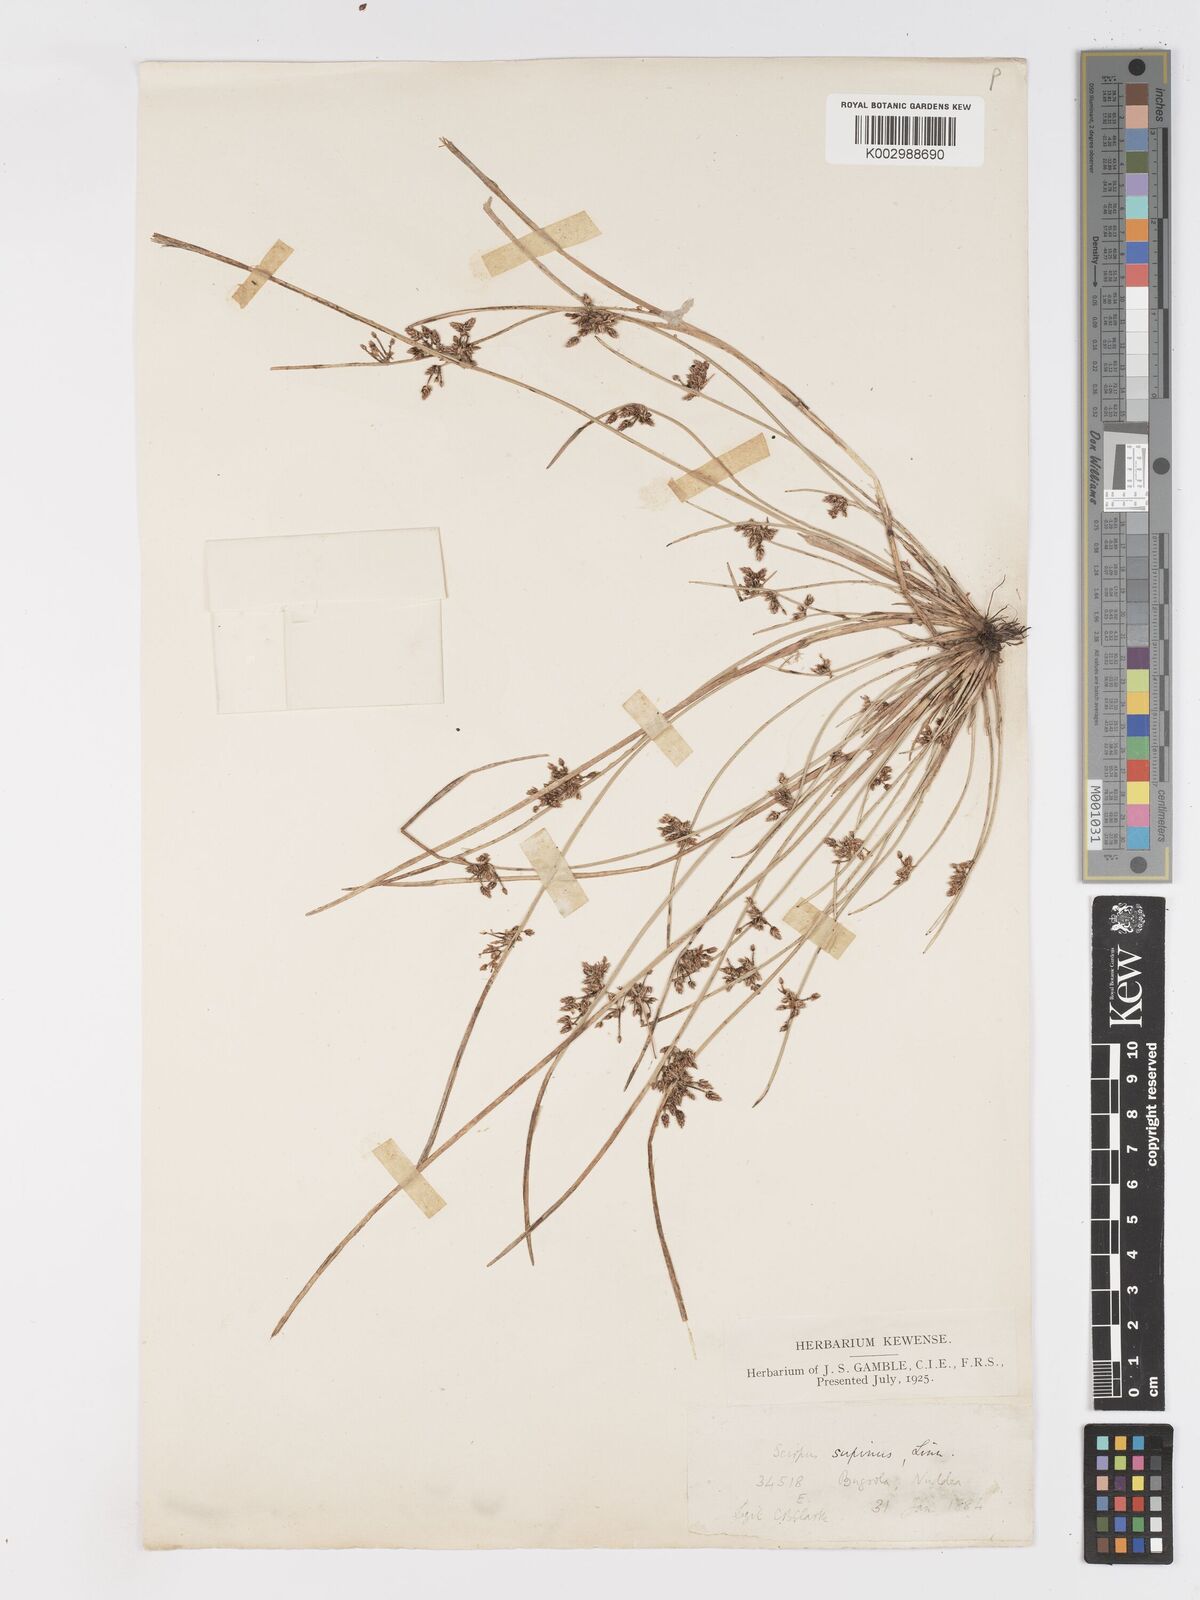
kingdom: Plantae
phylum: Tracheophyta
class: Liliopsida
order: Poales
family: Cyperaceae
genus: Schoenoplectiella
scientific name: Schoenoplectiella lateriflora
